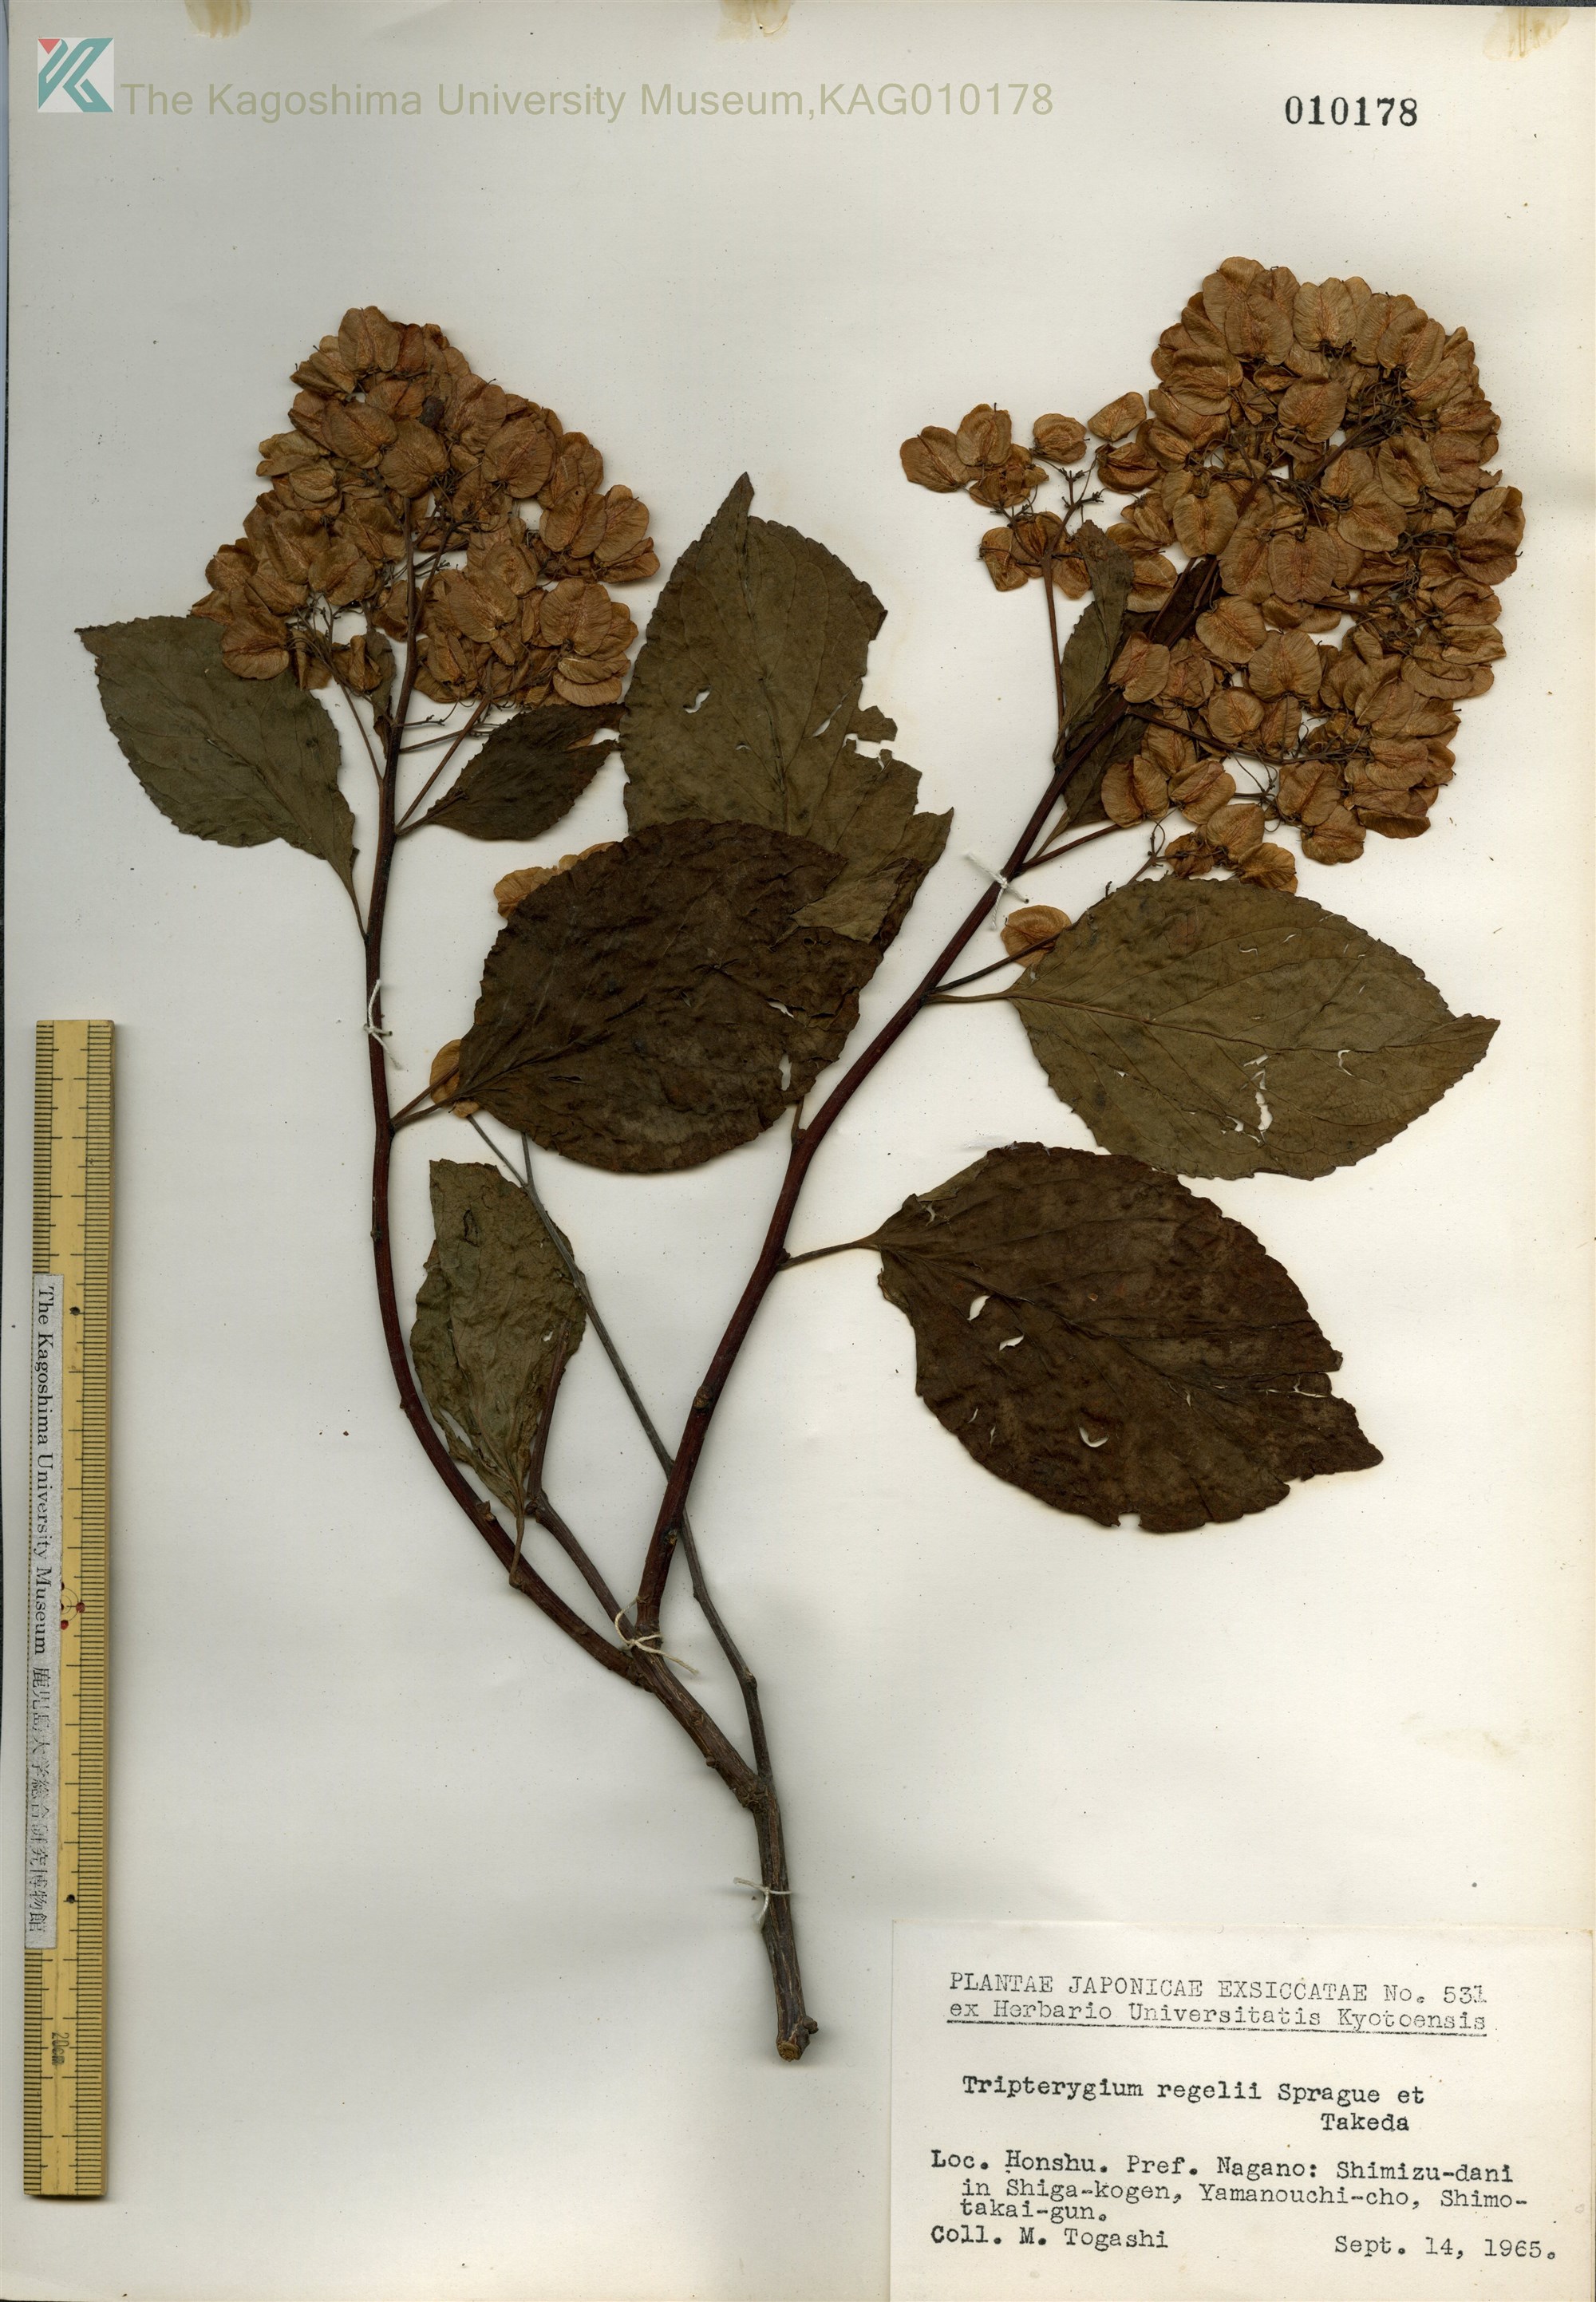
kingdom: Plantae
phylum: Tracheophyta
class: Magnoliopsida
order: Celastrales
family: Celastraceae
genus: Tripterygium
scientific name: Tripterygium wilfordii
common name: クロヅル
